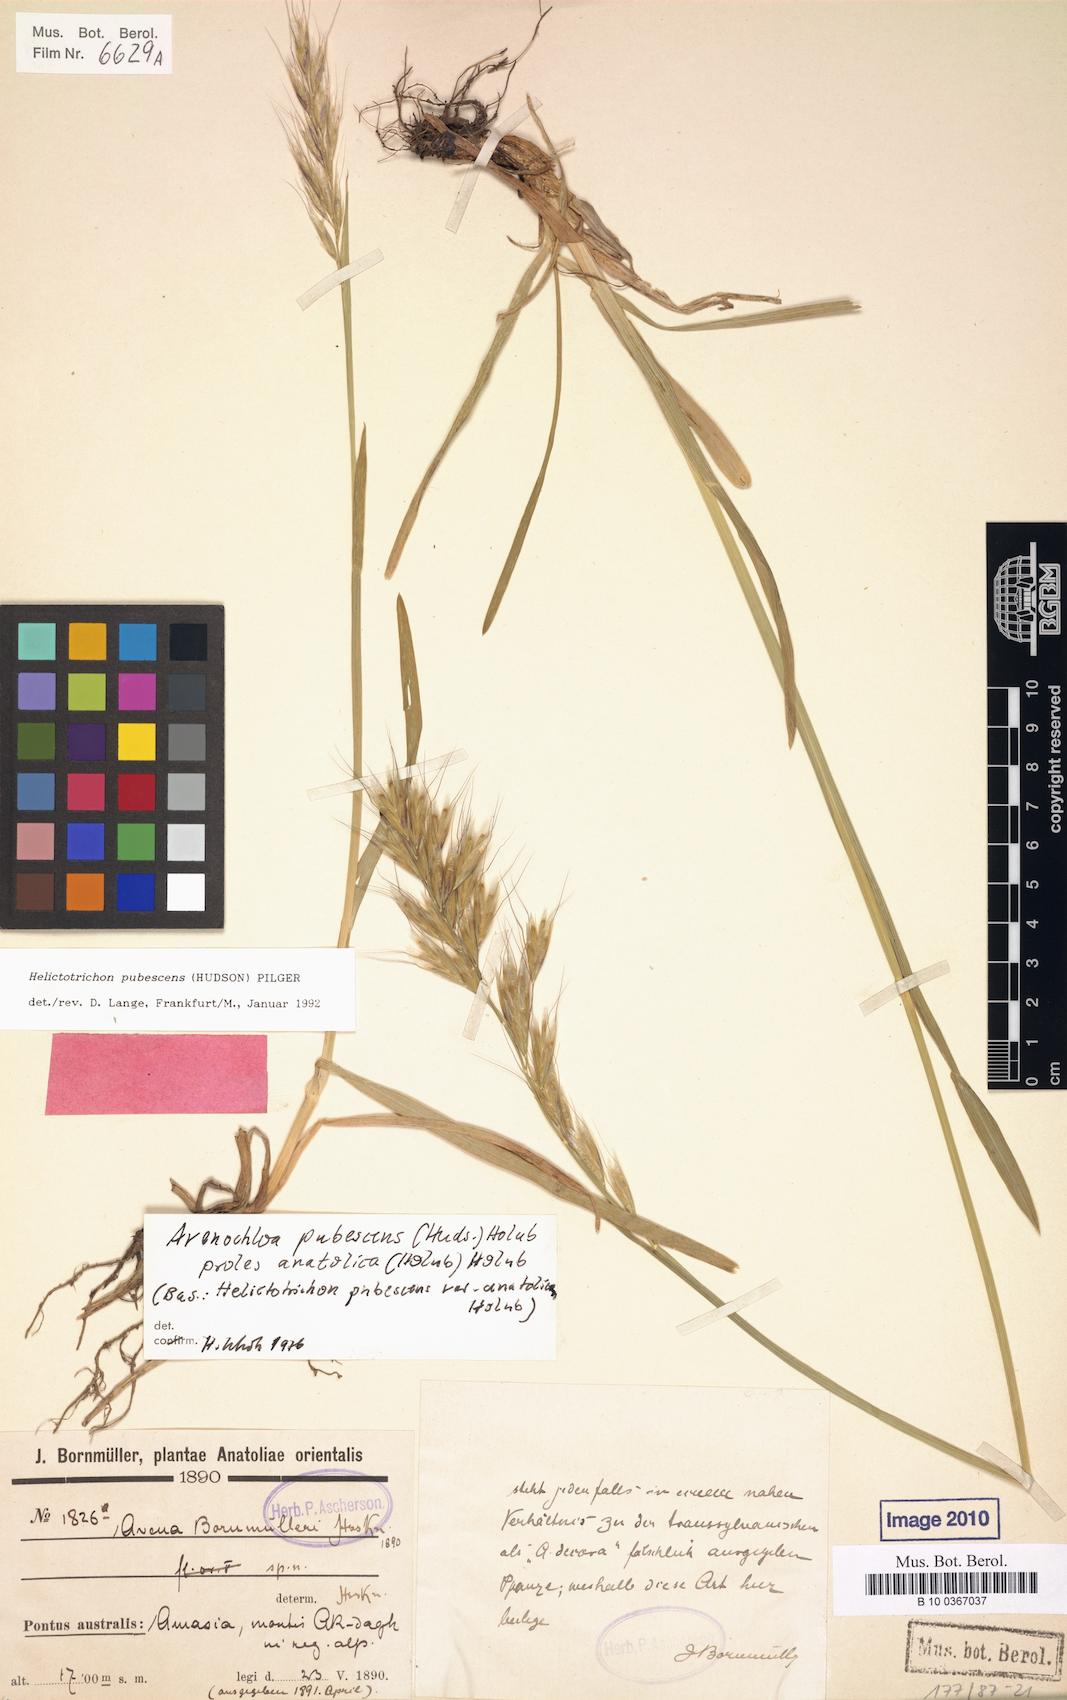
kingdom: Plantae
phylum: Tracheophyta
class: Liliopsida
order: Poales
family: Poaceae
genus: Avenula
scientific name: Avenula pubescens
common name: Downy alpine oatgrass
